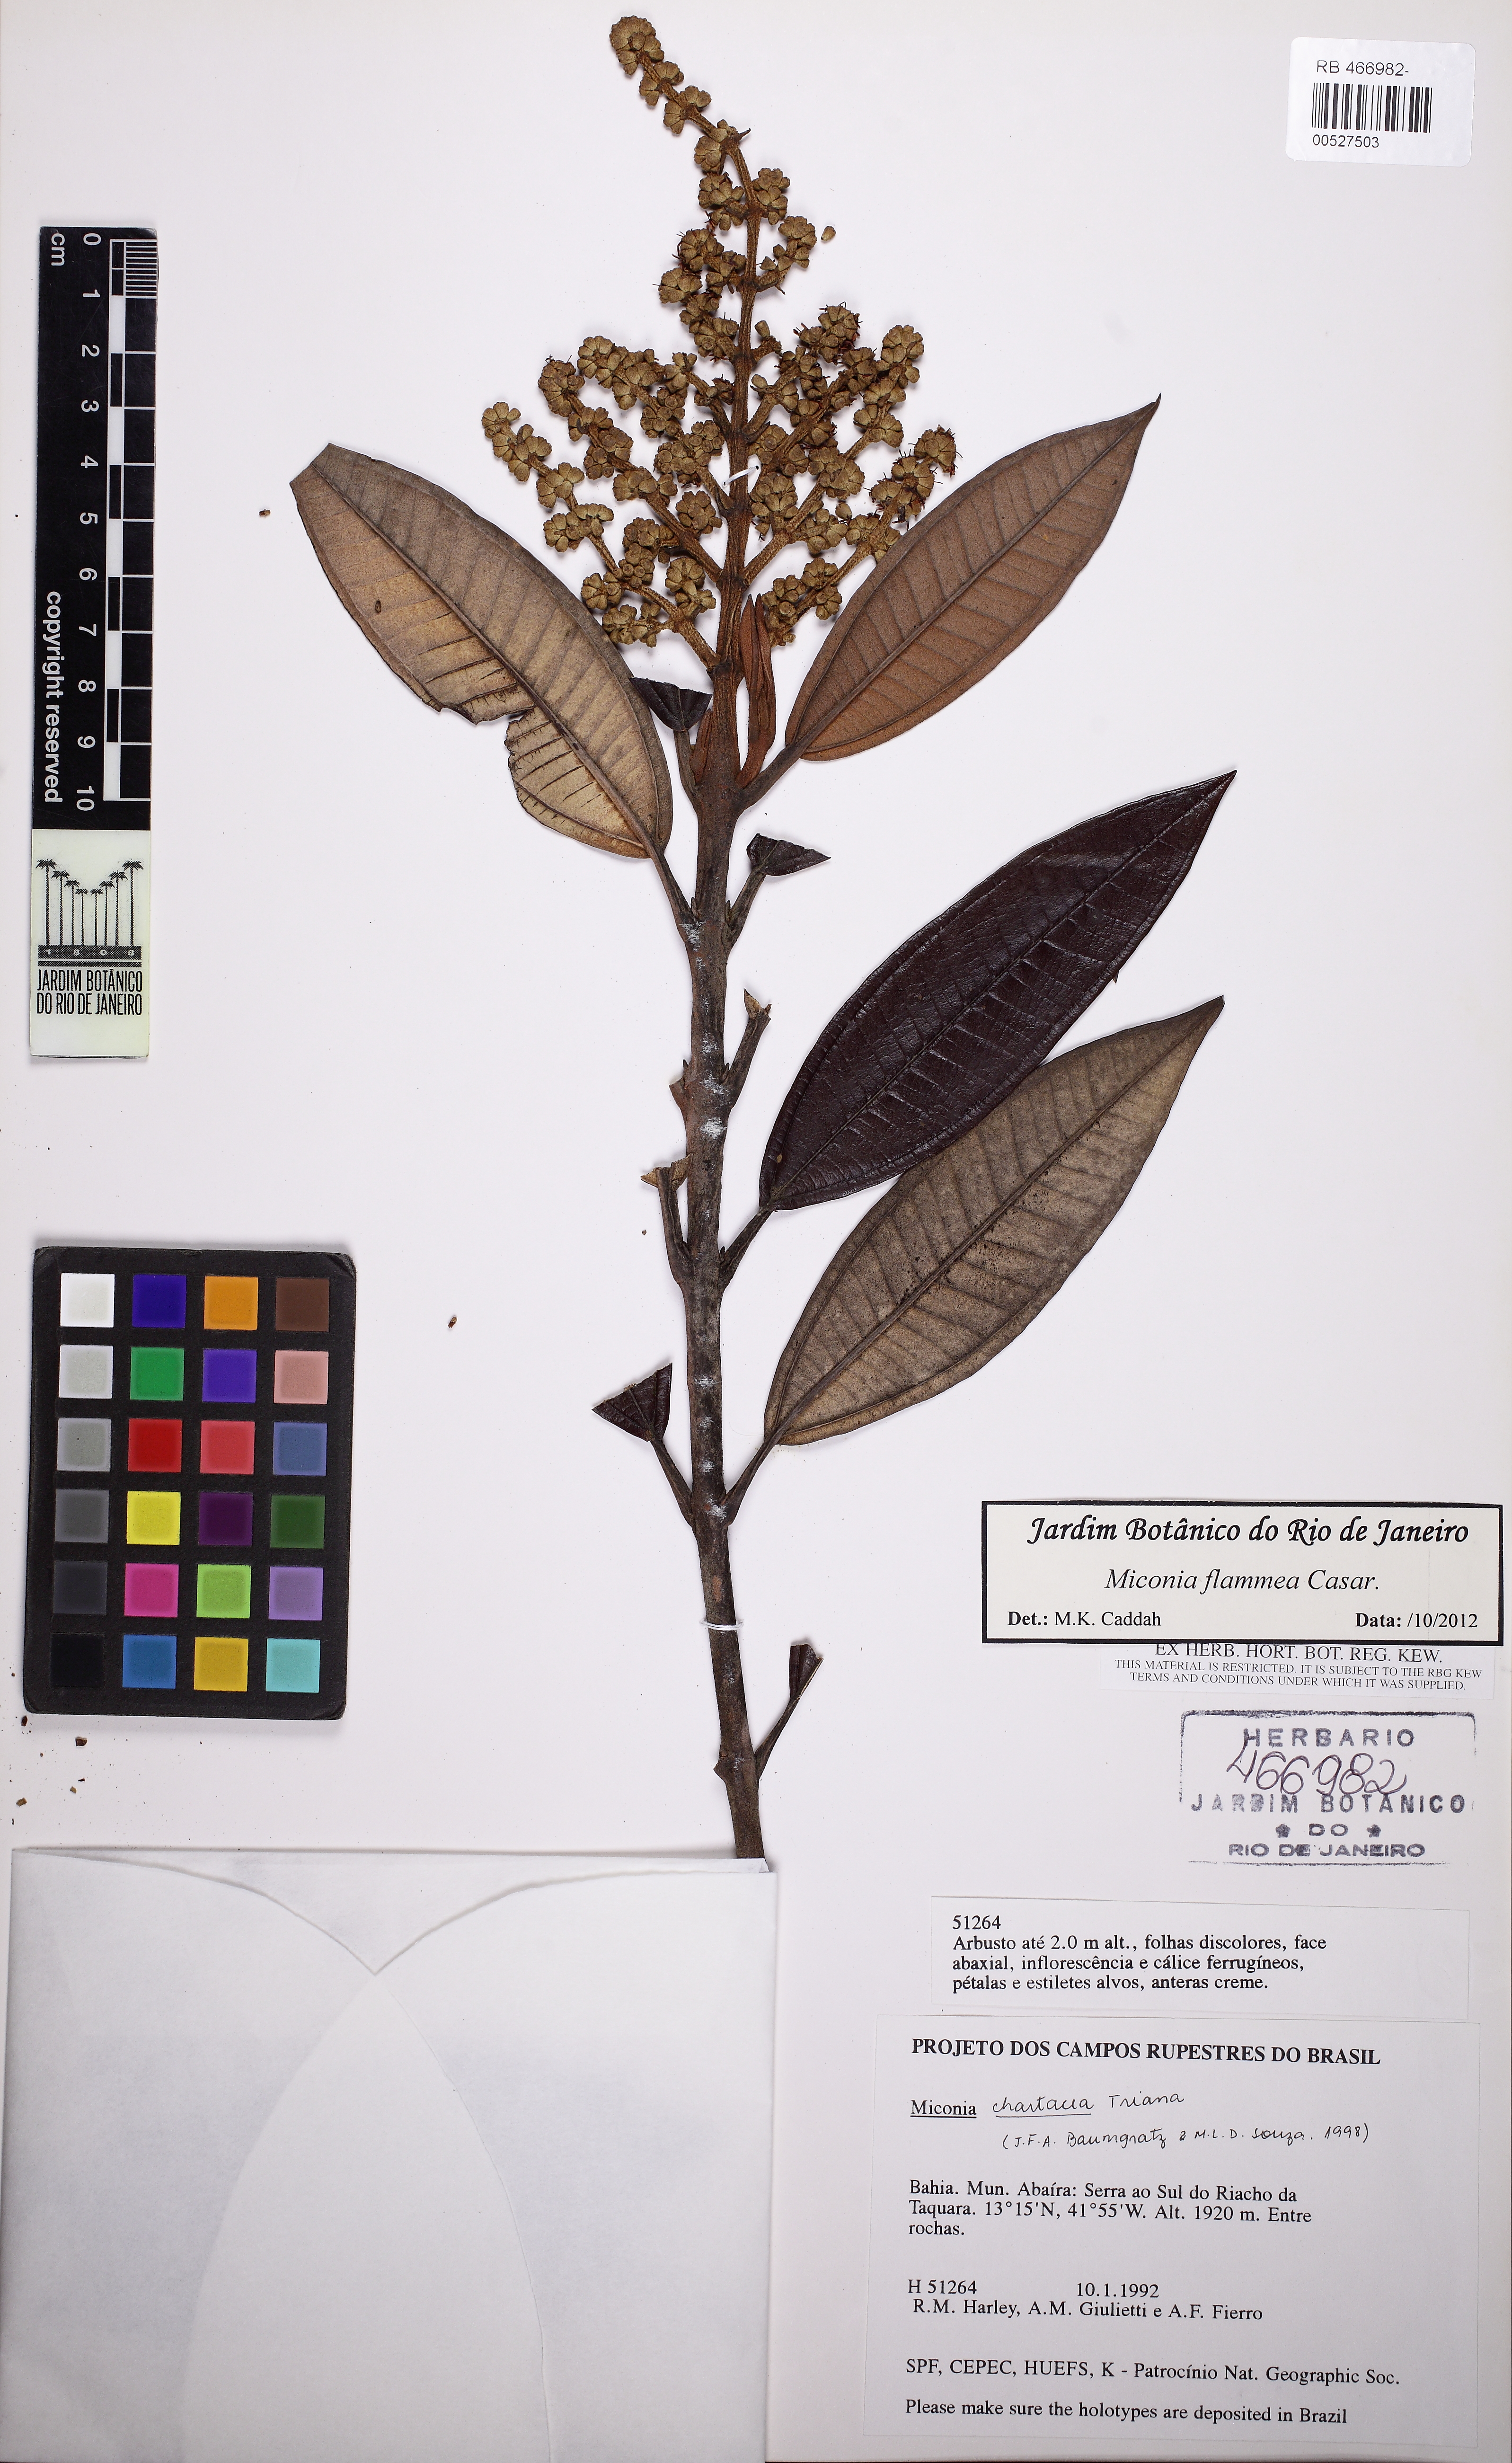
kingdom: Plantae
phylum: Tracheophyta
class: Magnoliopsida
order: Myrtales
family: Melastomataceae
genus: Miconia
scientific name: Miconia flammea
